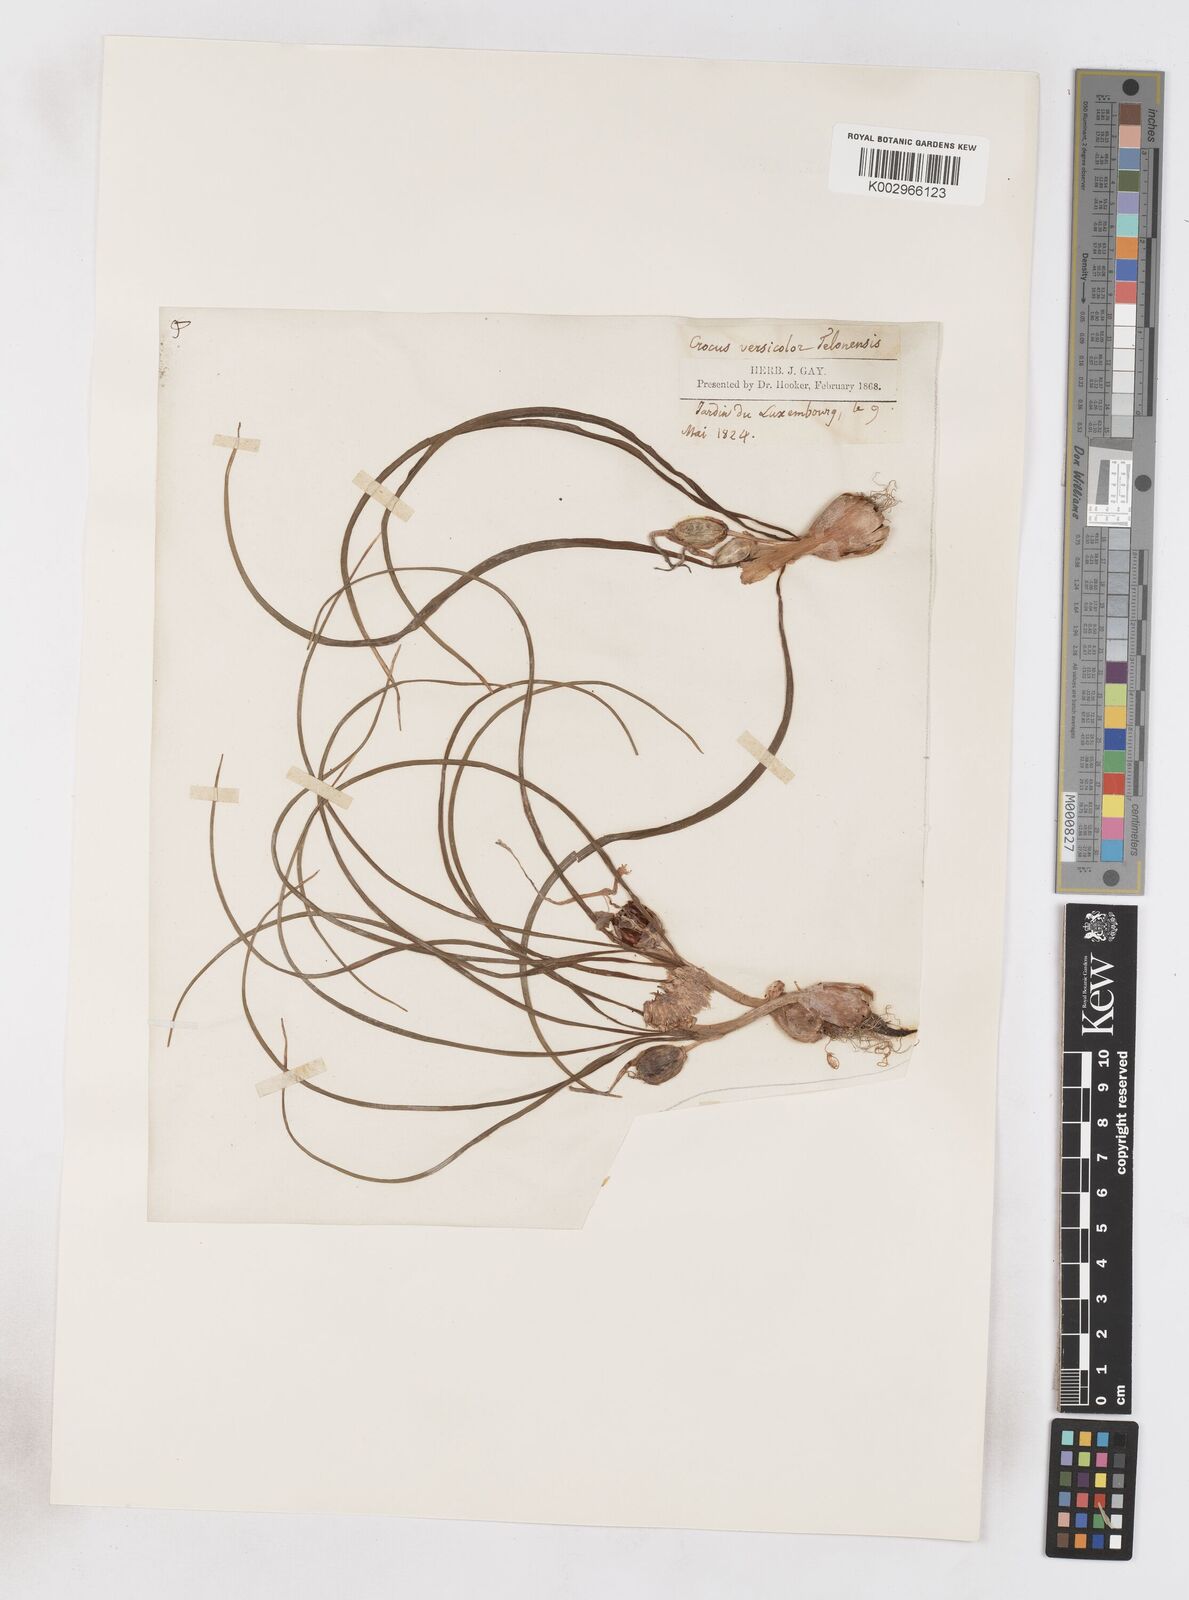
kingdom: Plantae
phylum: Tracheophyta
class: Liliopsida
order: Asparagales
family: Iridaceae
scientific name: Iridaceae
